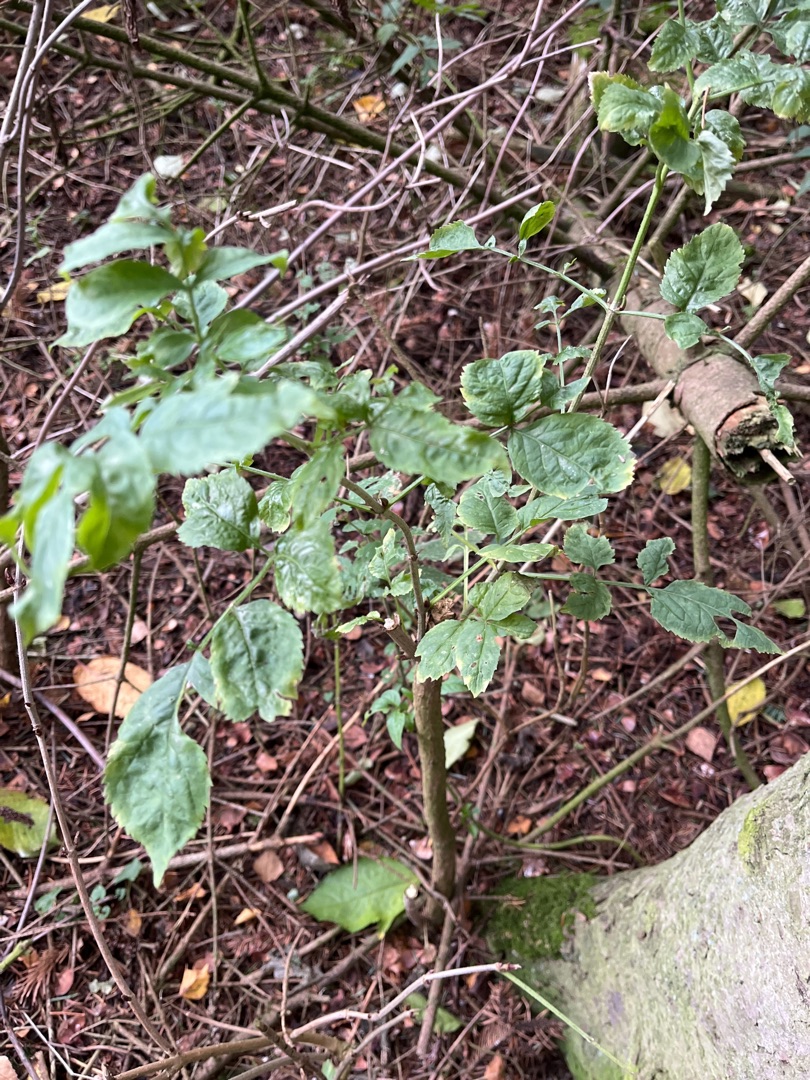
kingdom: Plantae
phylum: Tracheophyta
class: Magnoliopsida
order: Dipsacales
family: Viburnaceae
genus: Sambucus
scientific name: Sambucus nigra
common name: Almindelig hyld
